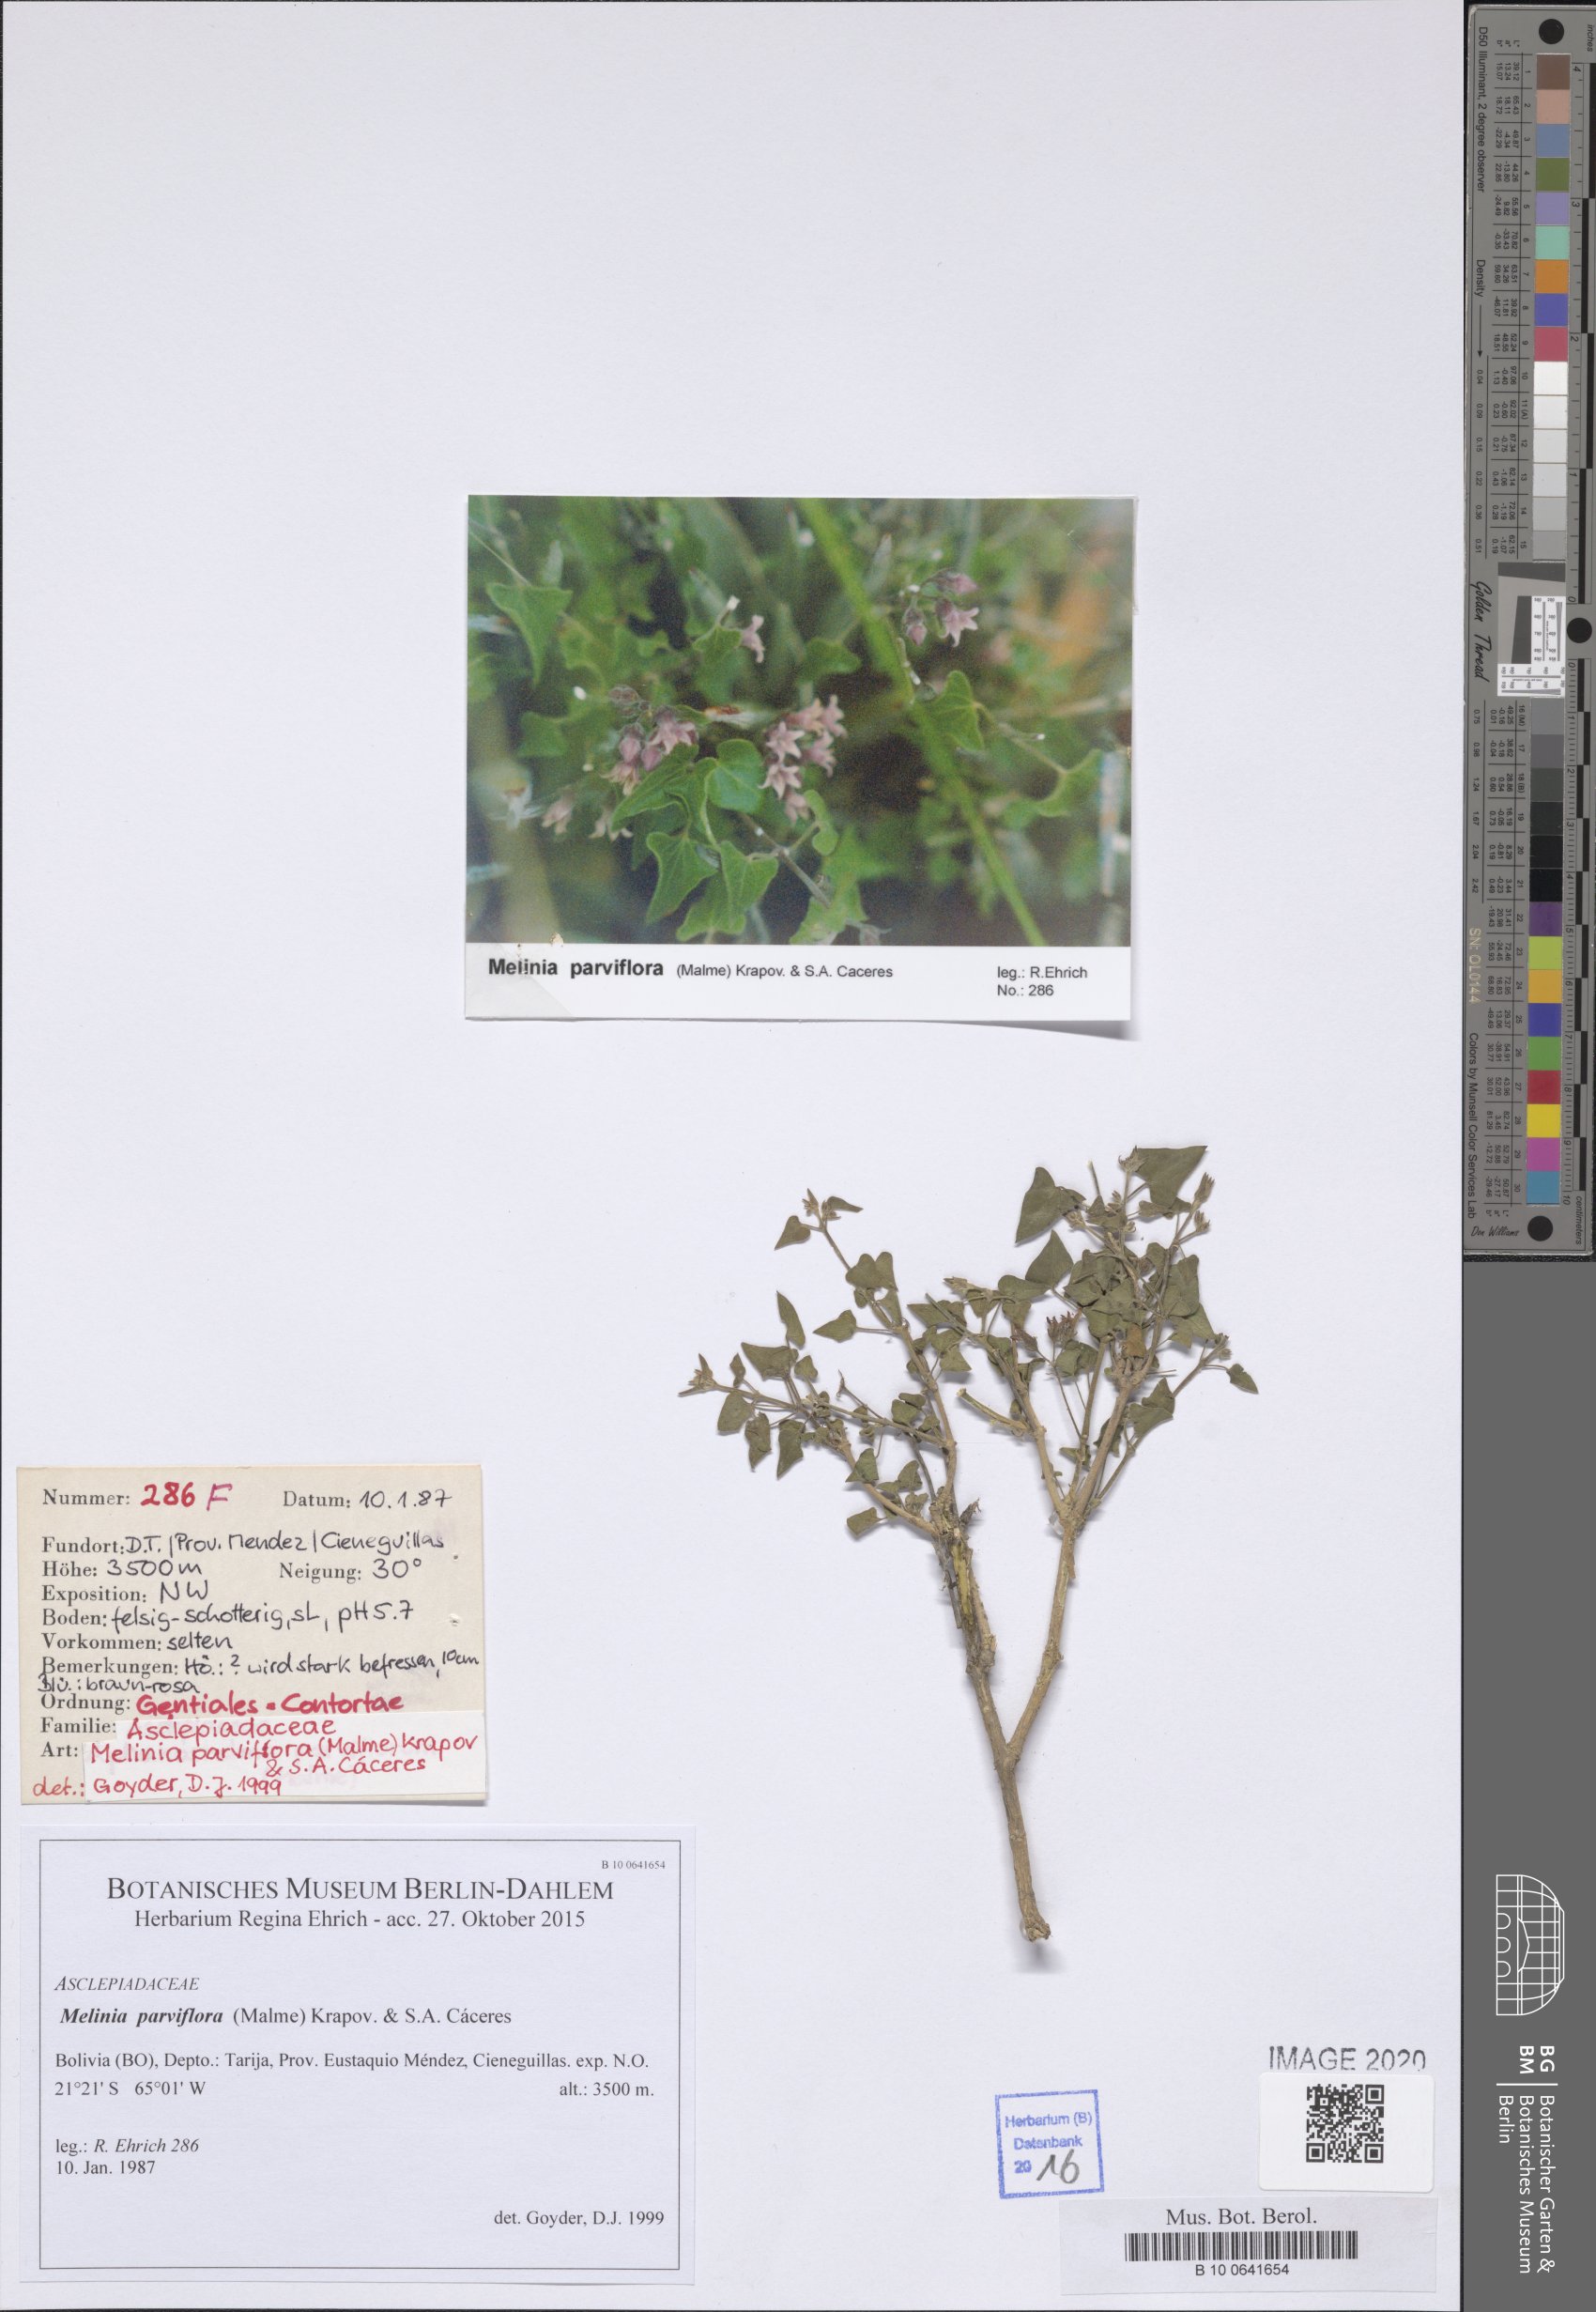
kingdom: Plantae
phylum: Tracheophyta
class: Magnoliopsida
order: Gentianales
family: Apocynaceae
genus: Philibertia
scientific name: Philibertia parviflora
